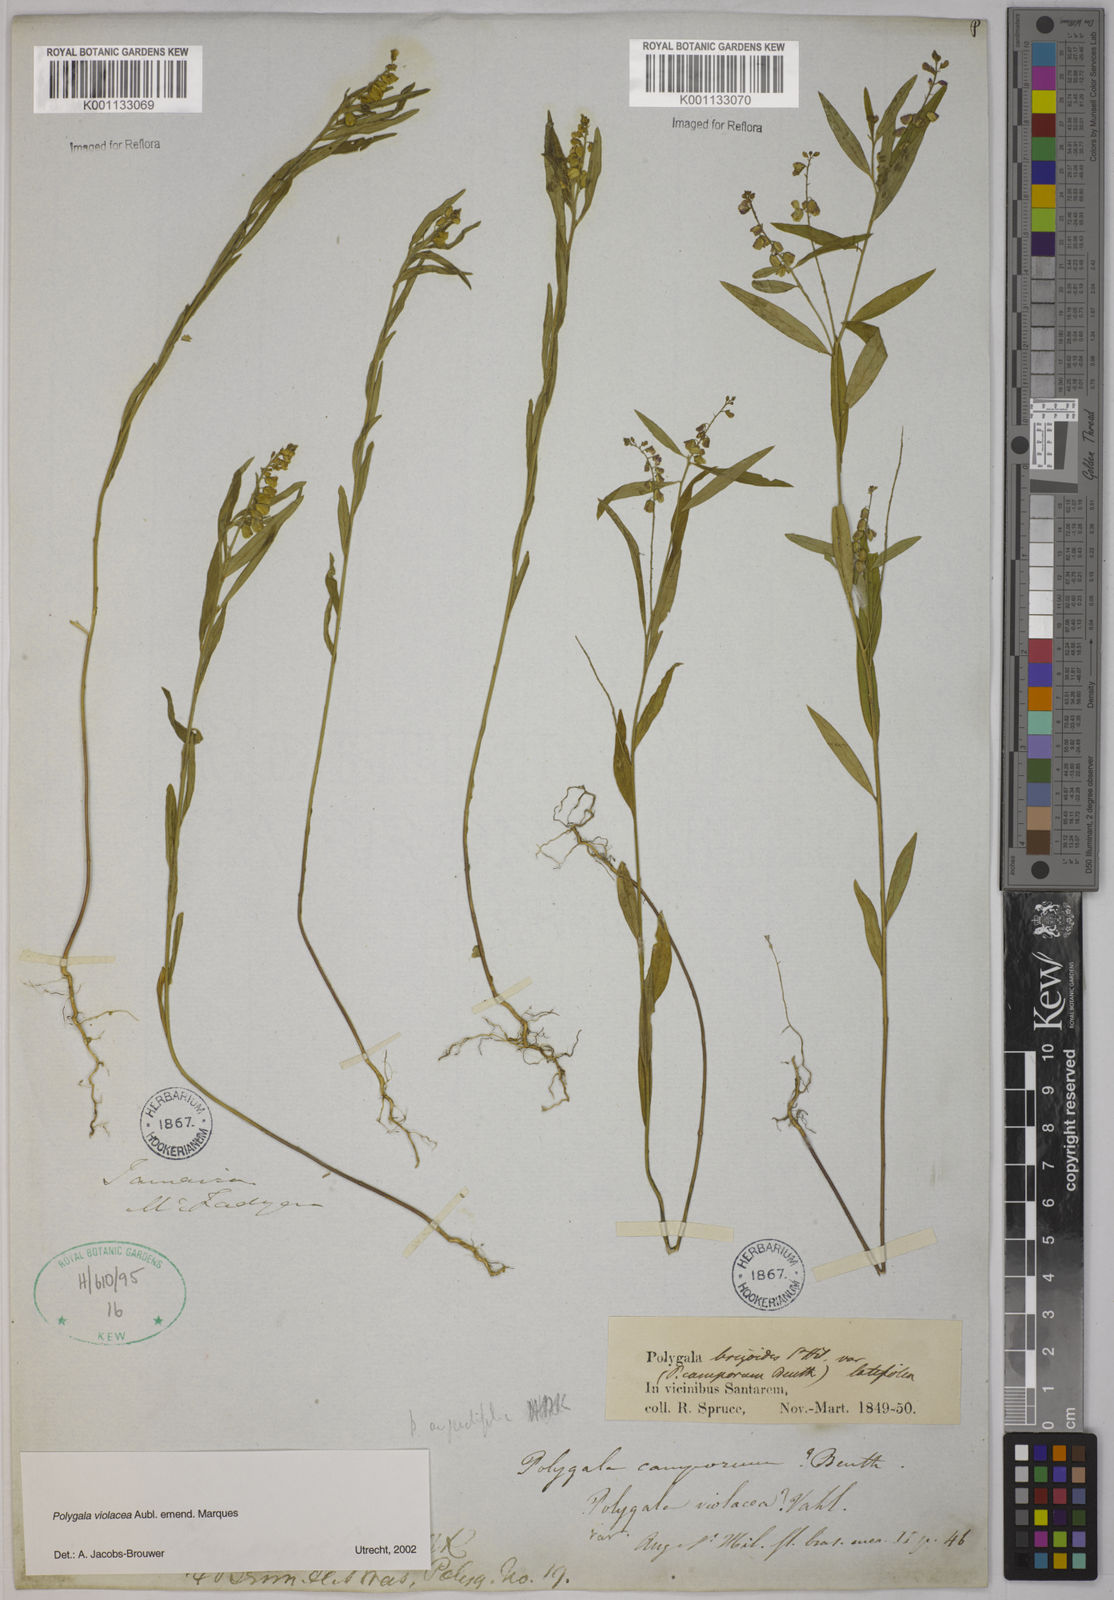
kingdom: Plantae
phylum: Tracheophyta
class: Magnoliopsida
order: Fabales
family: Polygalaceae
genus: Polygala
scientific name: Polygala
